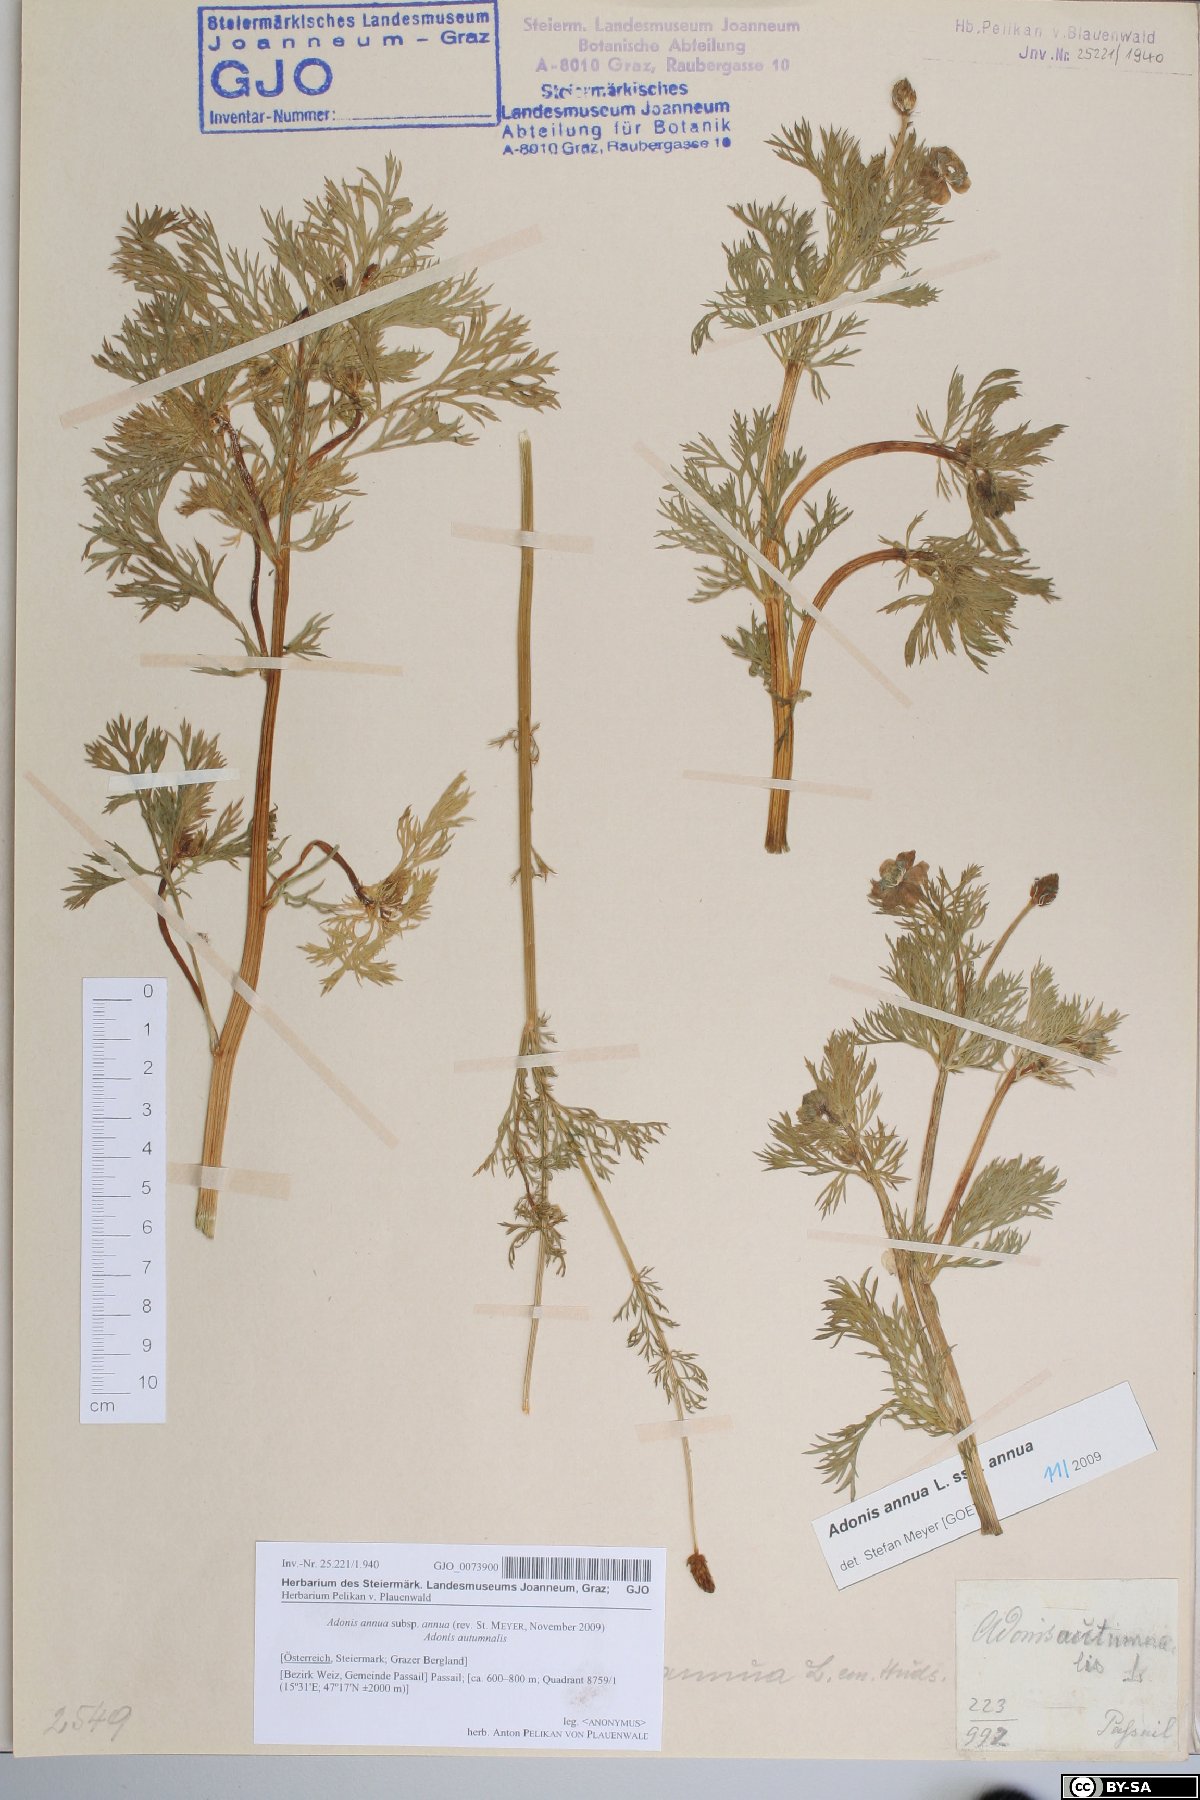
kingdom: Plantae
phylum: Tracheophyta
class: Magnoliopsida
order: Ranunculales
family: Ranunculaceae
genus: Adonis
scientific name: Adonis annua
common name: Pheasant's-eye
